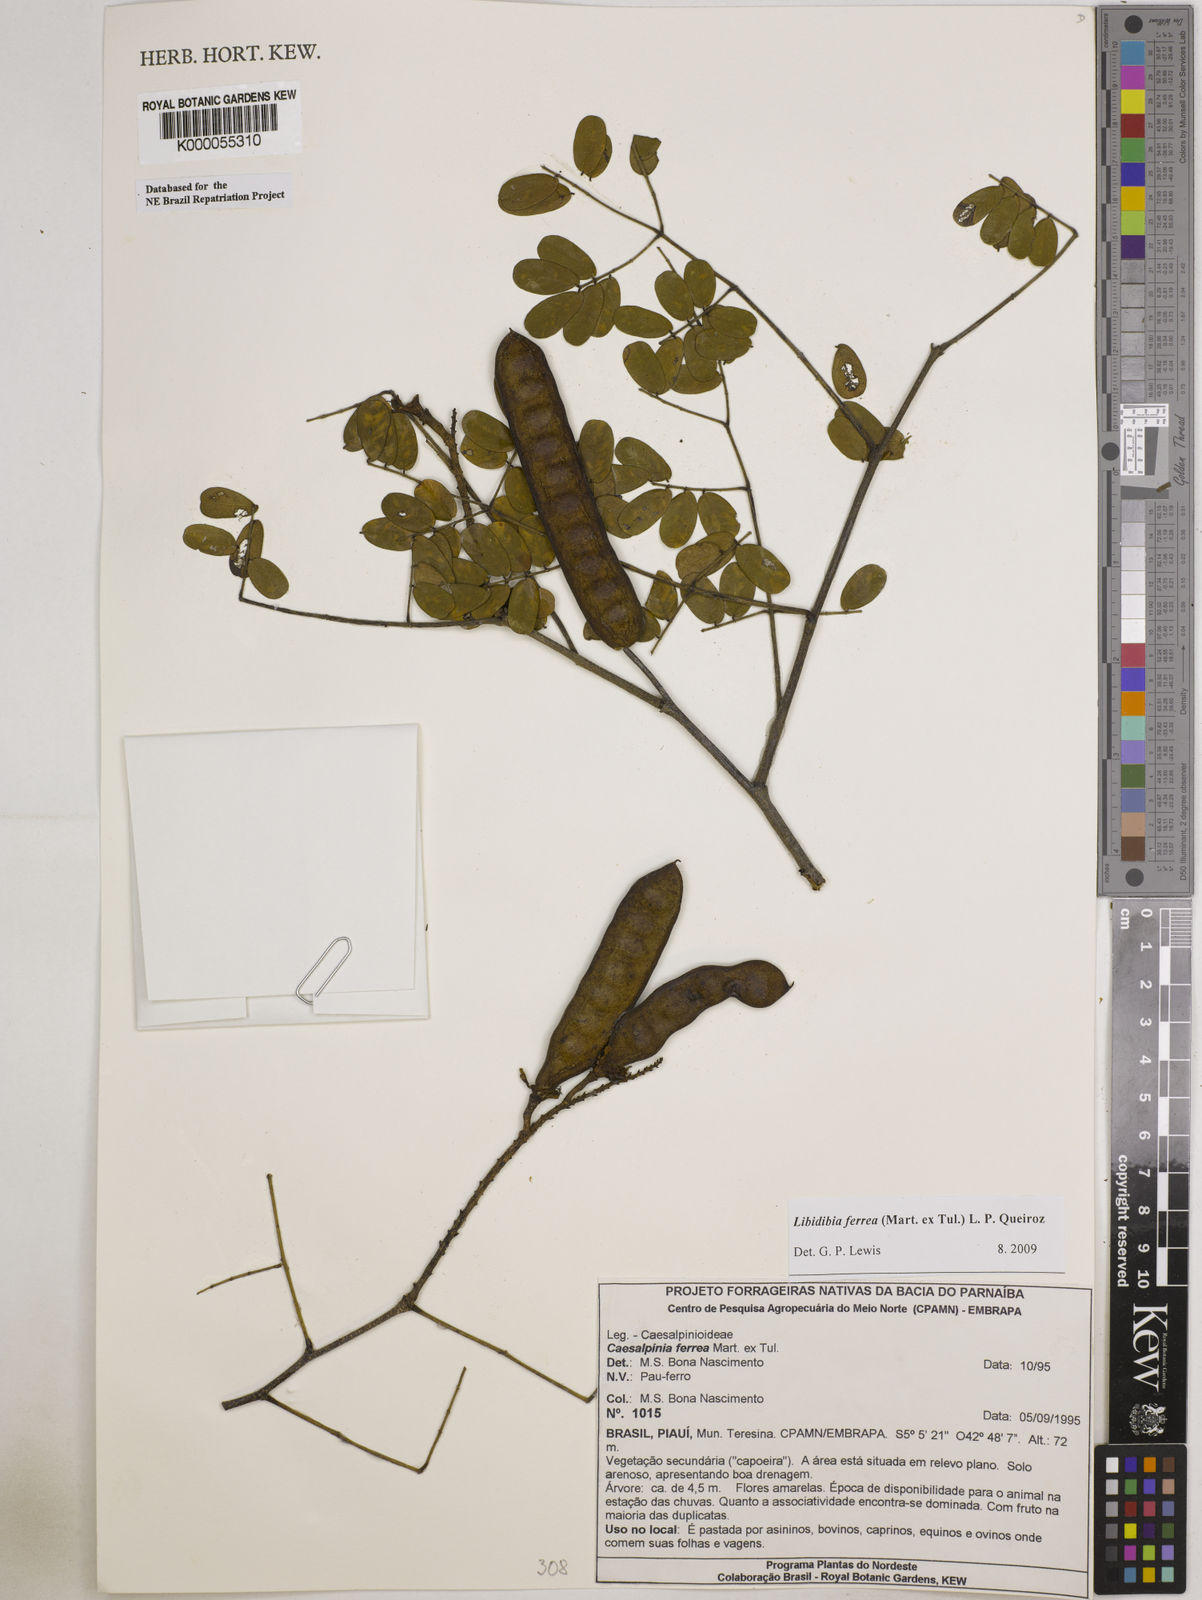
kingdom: Plantae
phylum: Tracheophyta
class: Magnoliopsida
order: Fabales
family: Fabaceae
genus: Libidibia
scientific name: Libidibia ferrea
